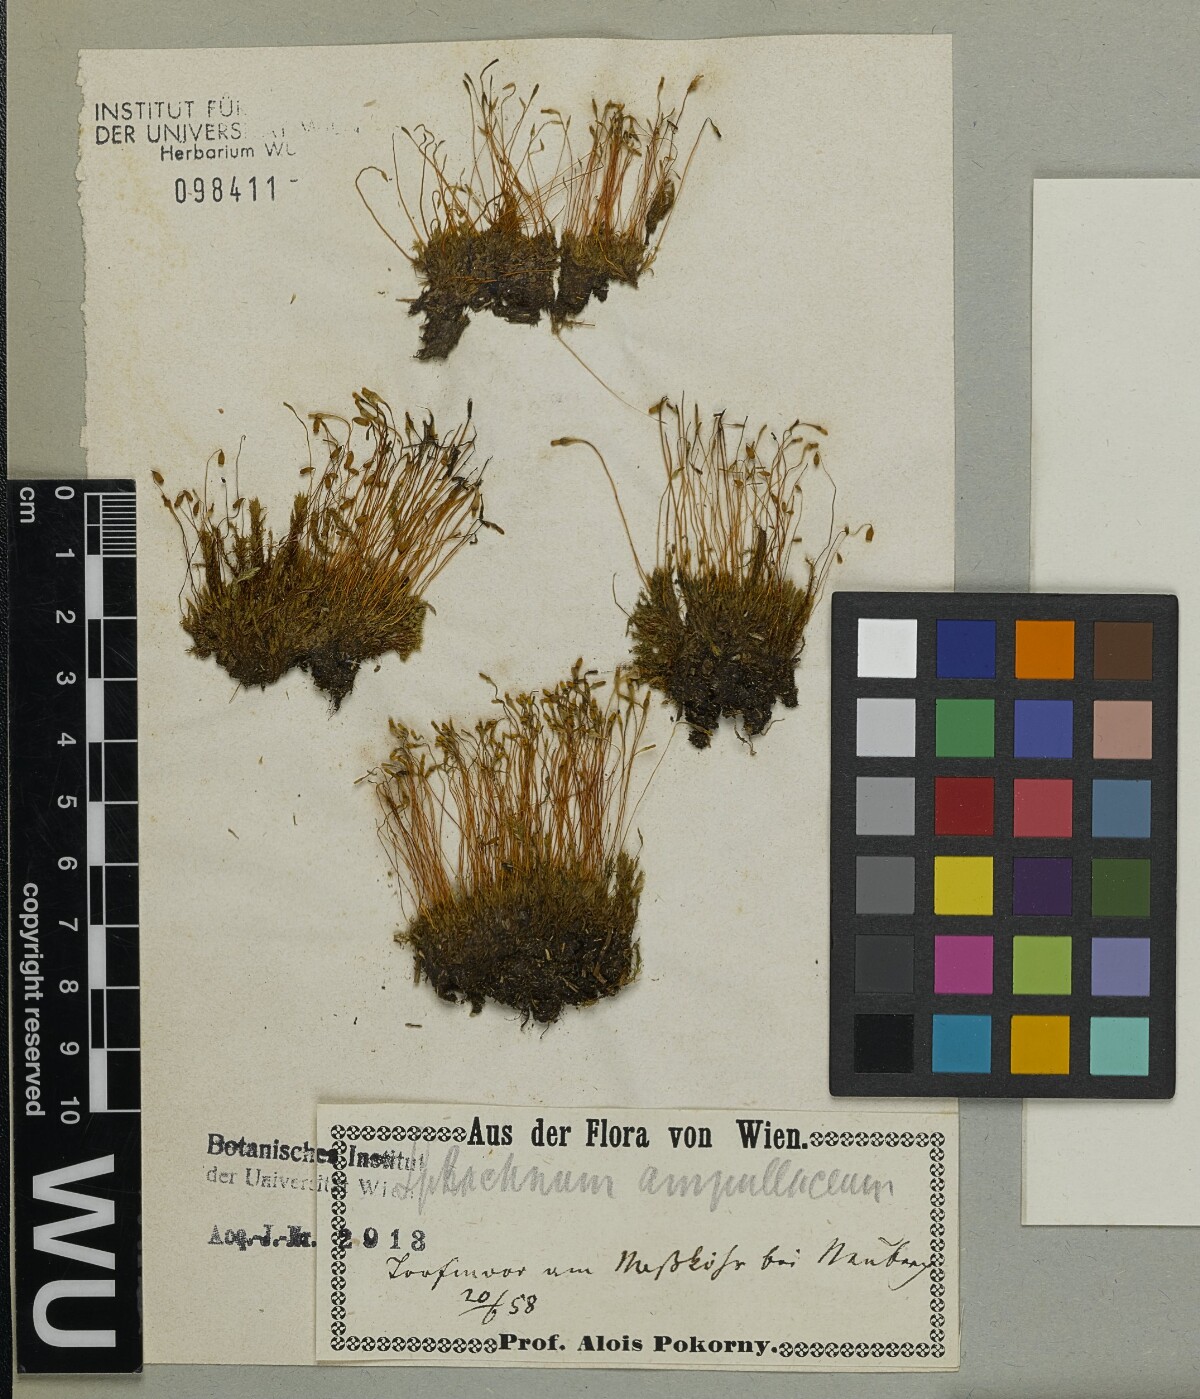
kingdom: Plantae
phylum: Bryophyta
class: Bryopsida
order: Splachnales
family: Splachnaceae
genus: Splachnum
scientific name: Splachnum ampullaceum
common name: Cruet dung moss
